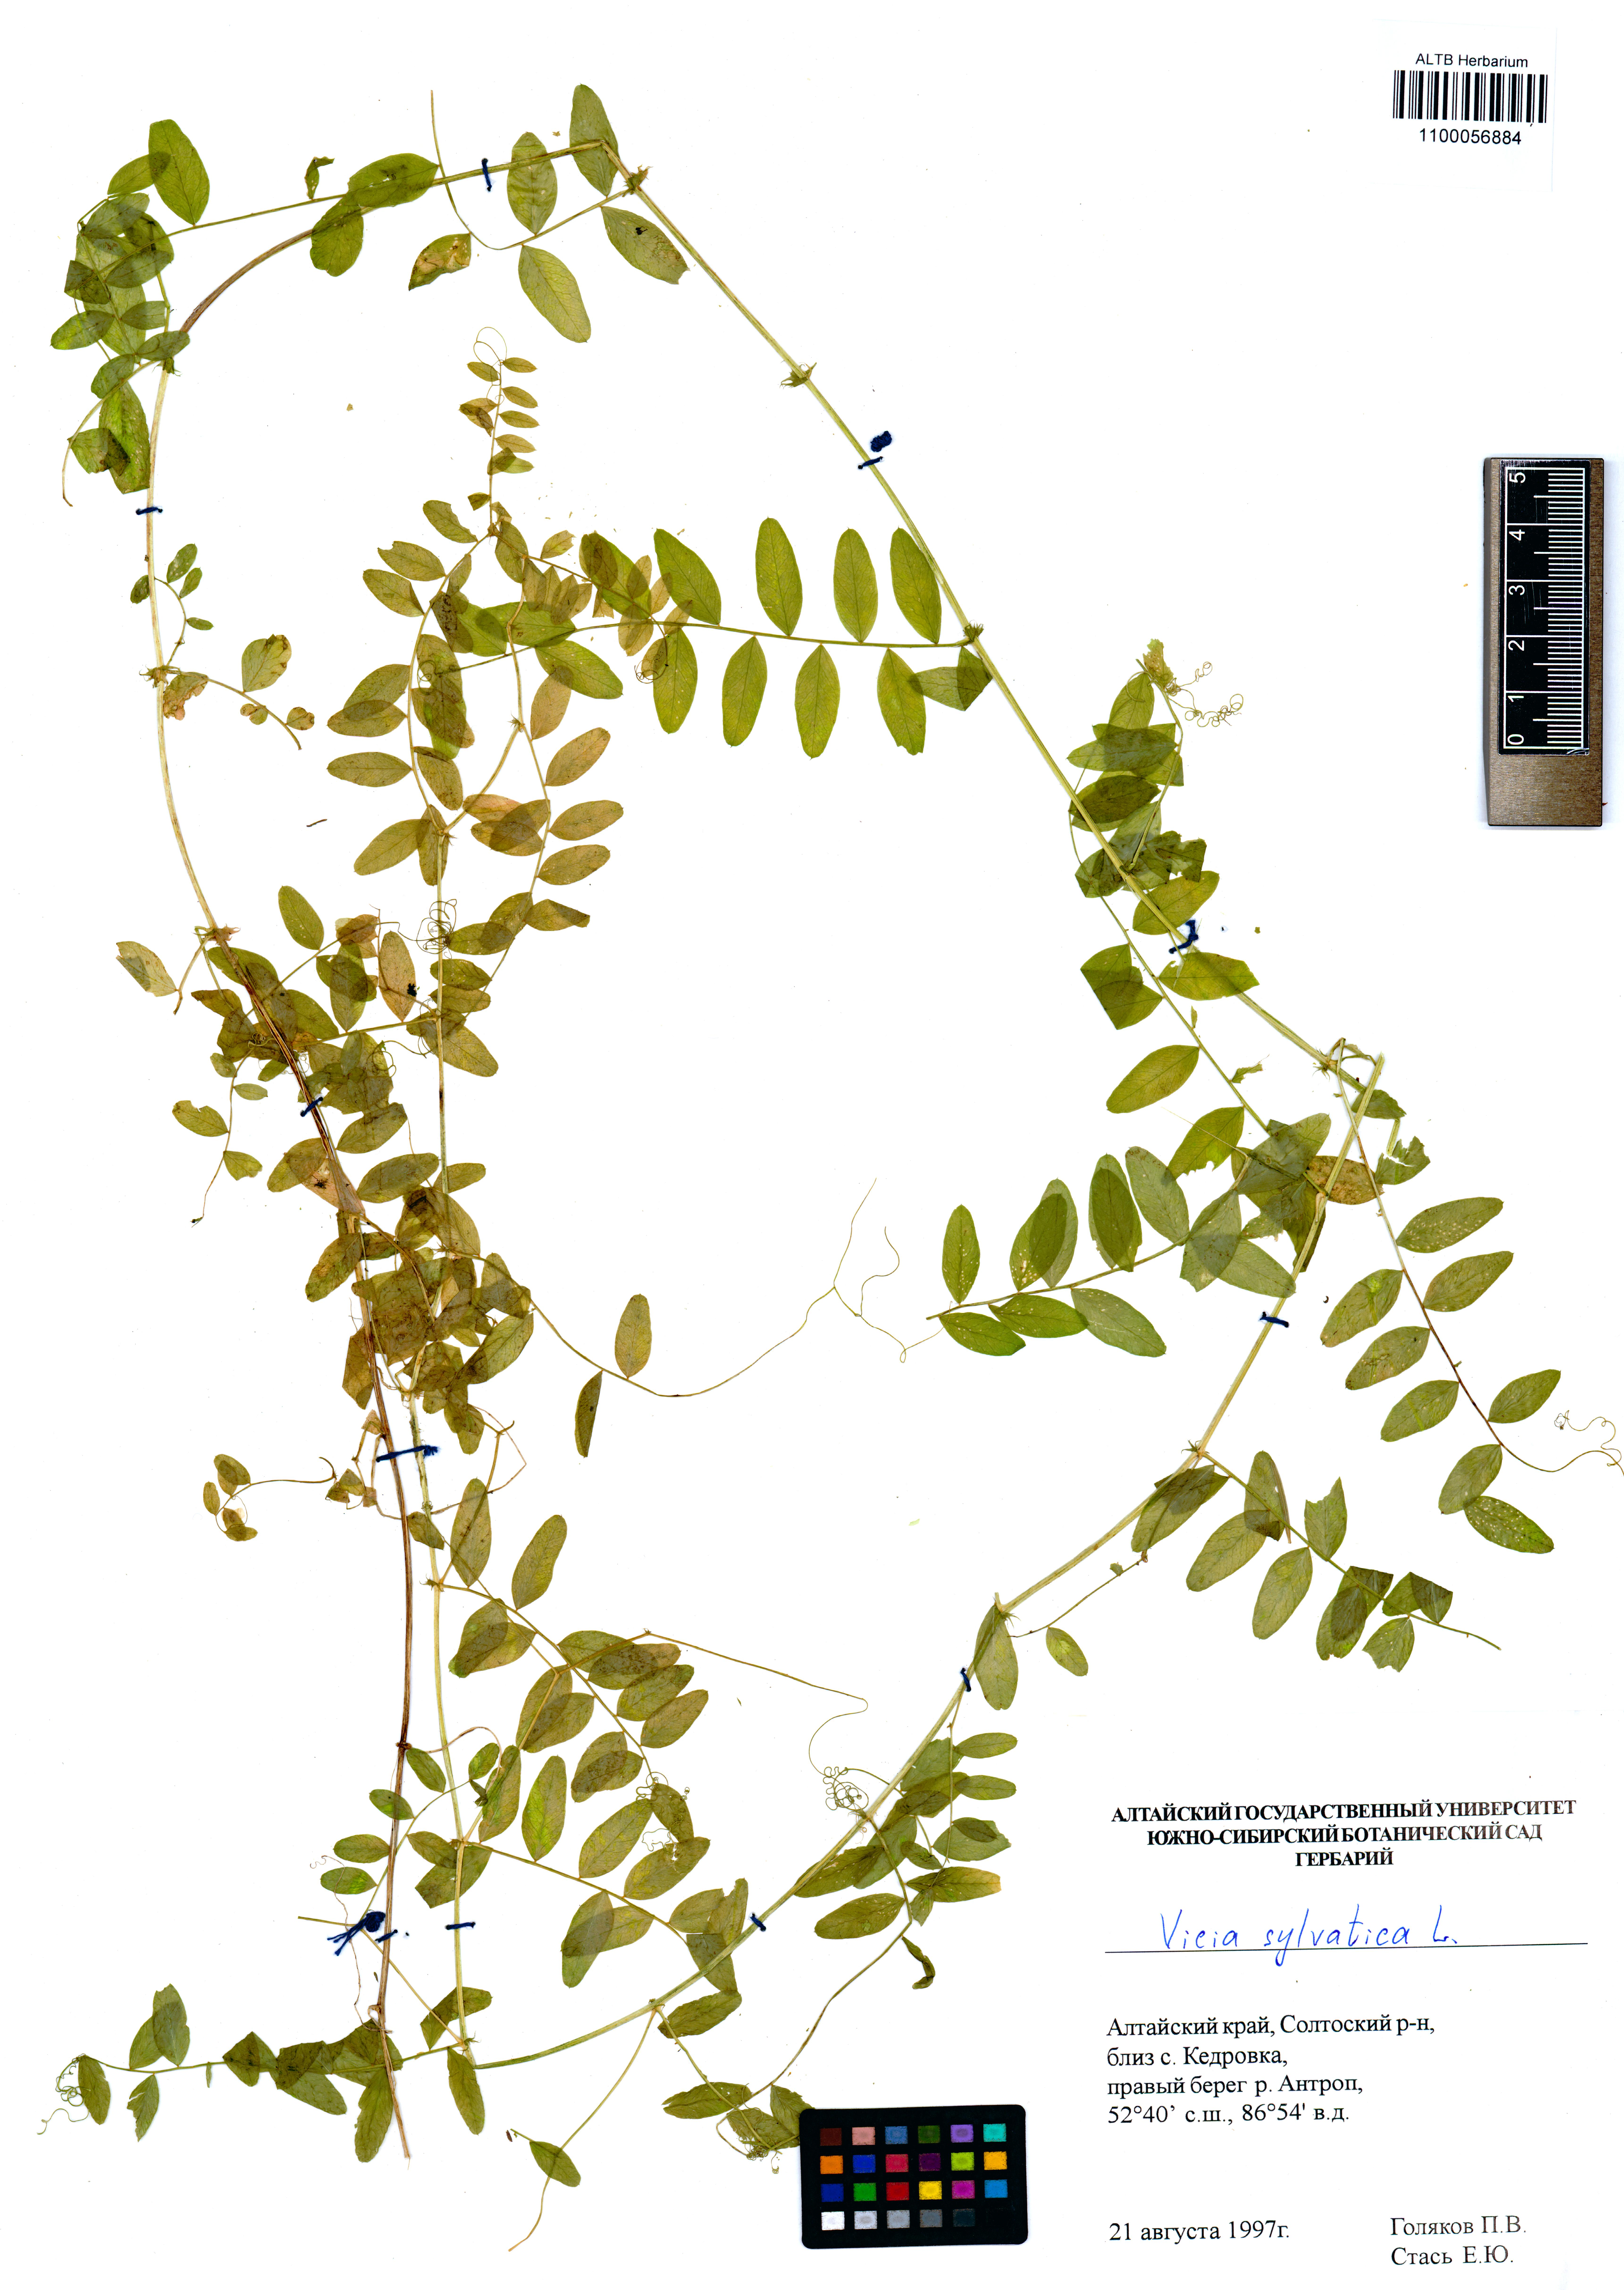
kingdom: Plantae
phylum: Tracheophyta
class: Magnoliopsida
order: Fabales
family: Fabaceae
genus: Vicia
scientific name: Vicia sylvatica
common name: Wood vetch
